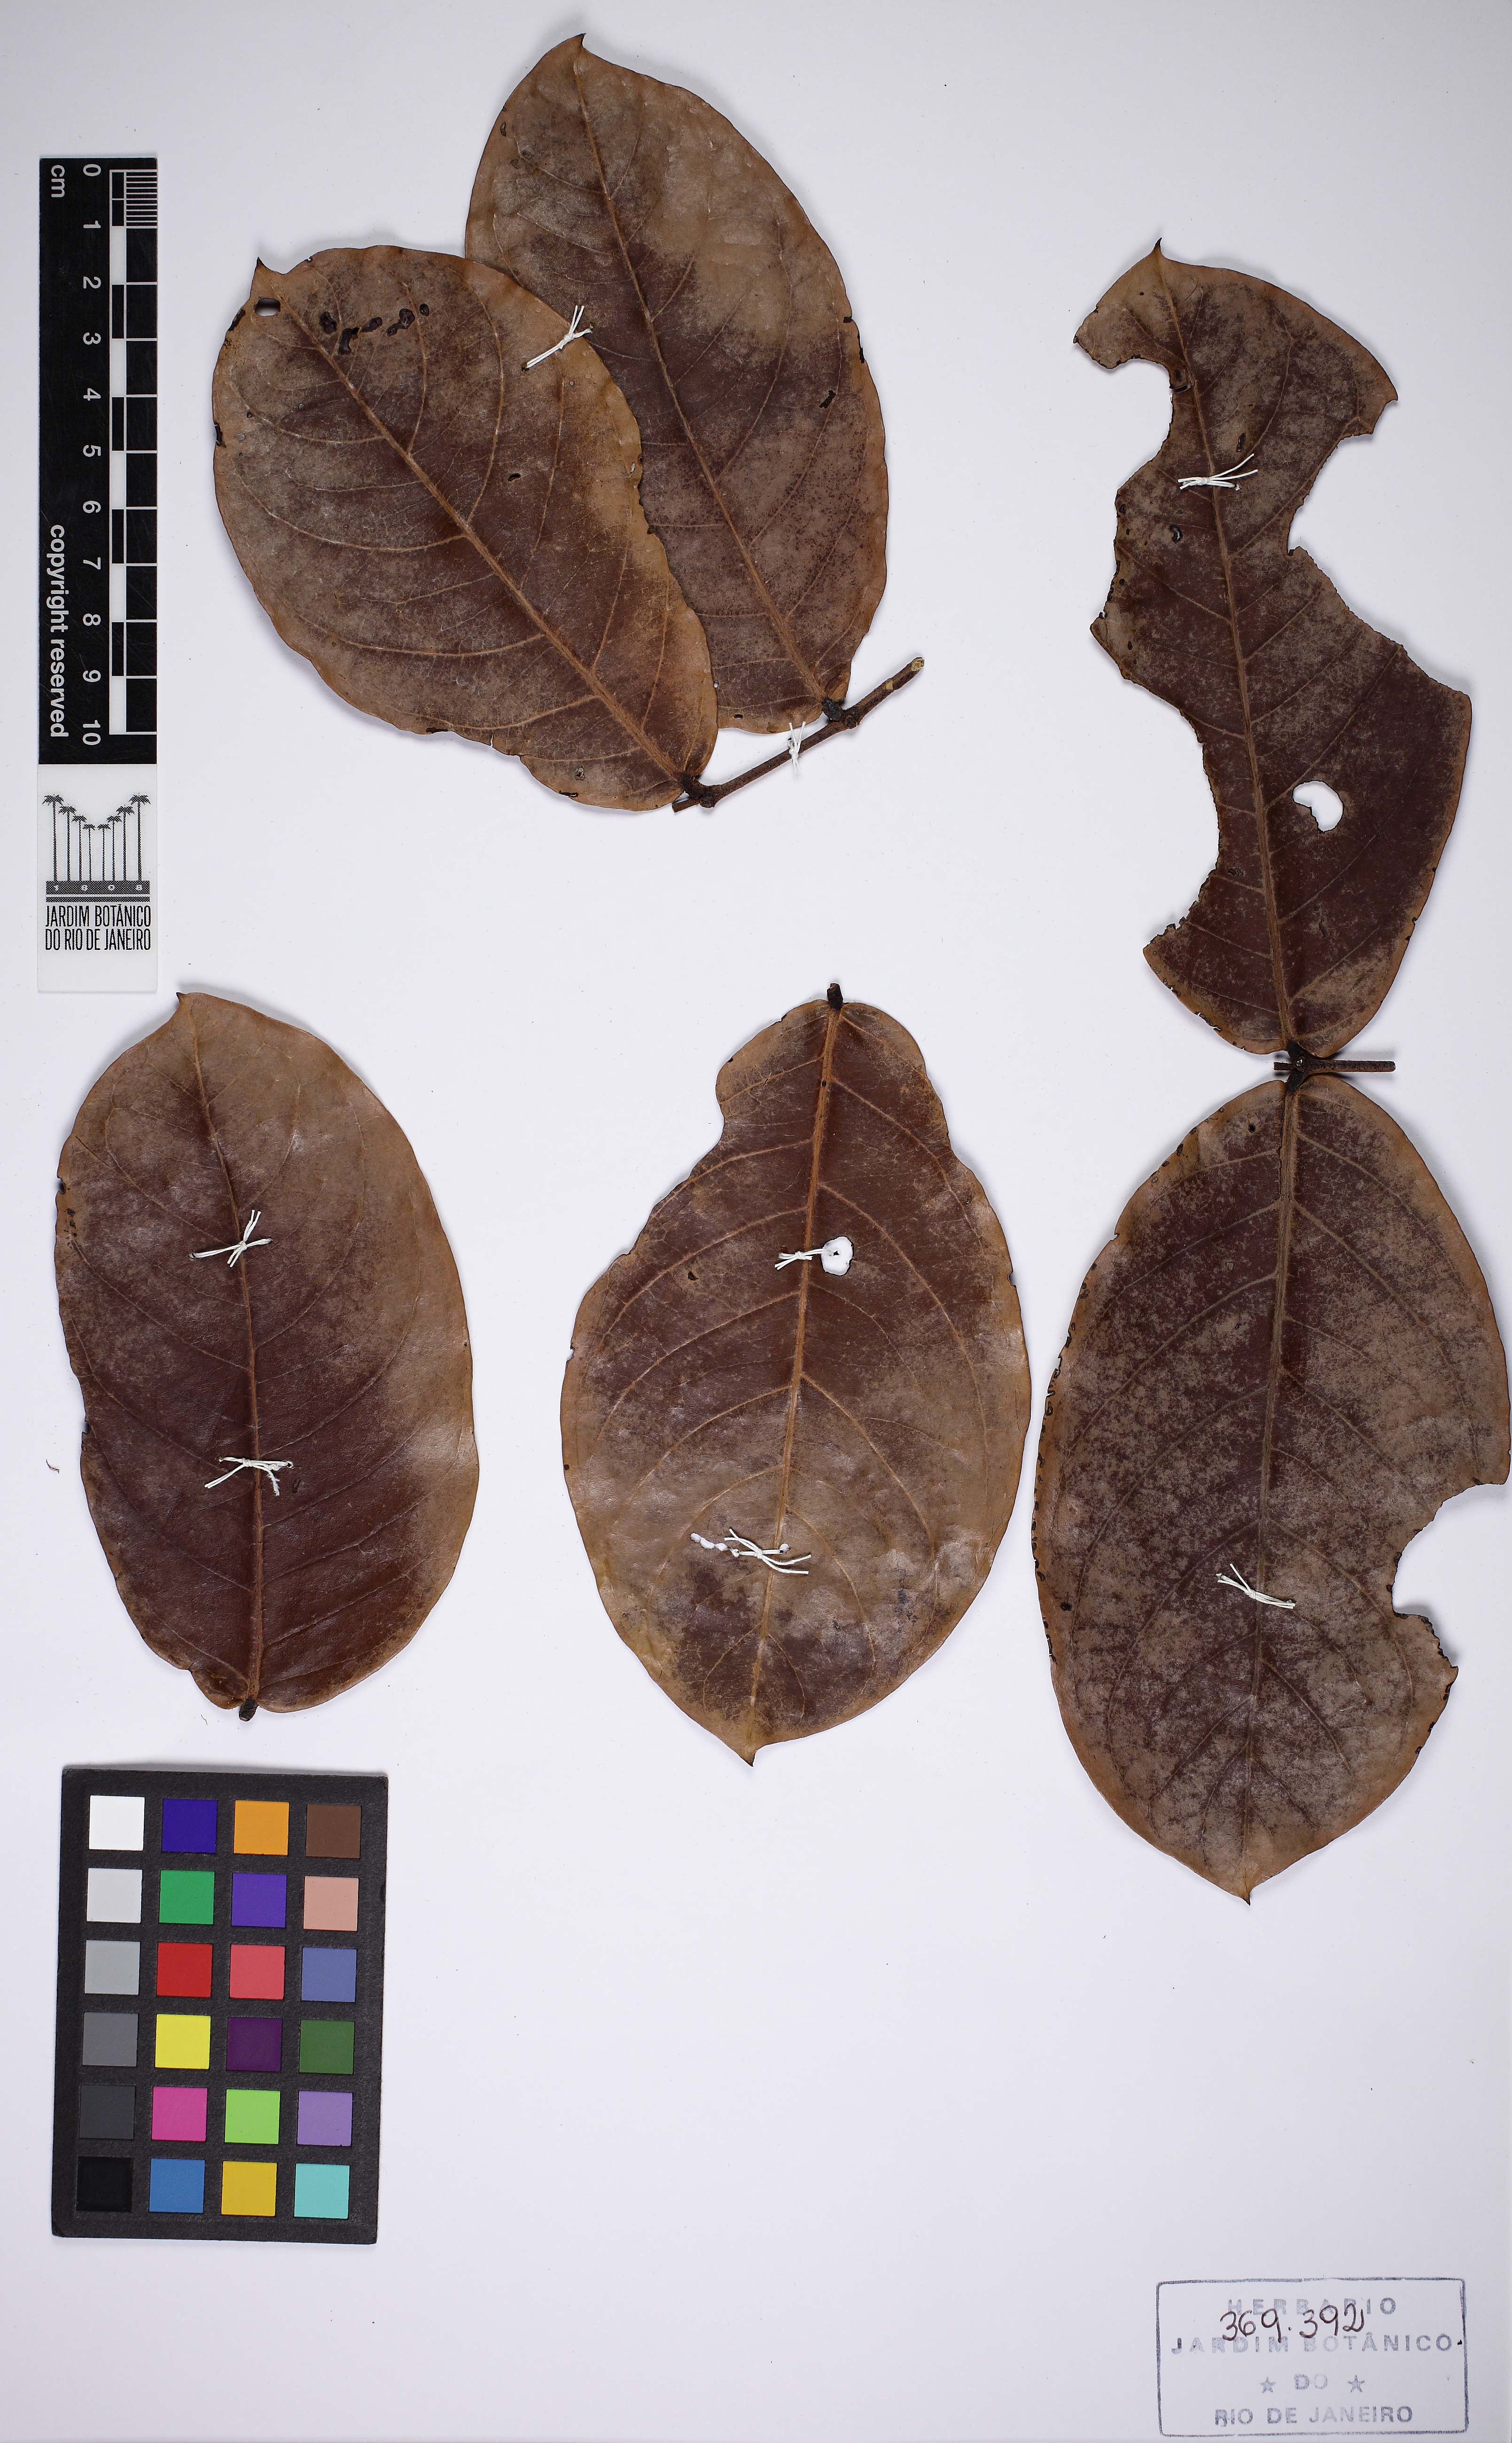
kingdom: Plantae
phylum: Tracheophyta
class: Magnoliopsida
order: Fabales
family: Fabaceae
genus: Inga
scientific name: Inga pleiogyna
